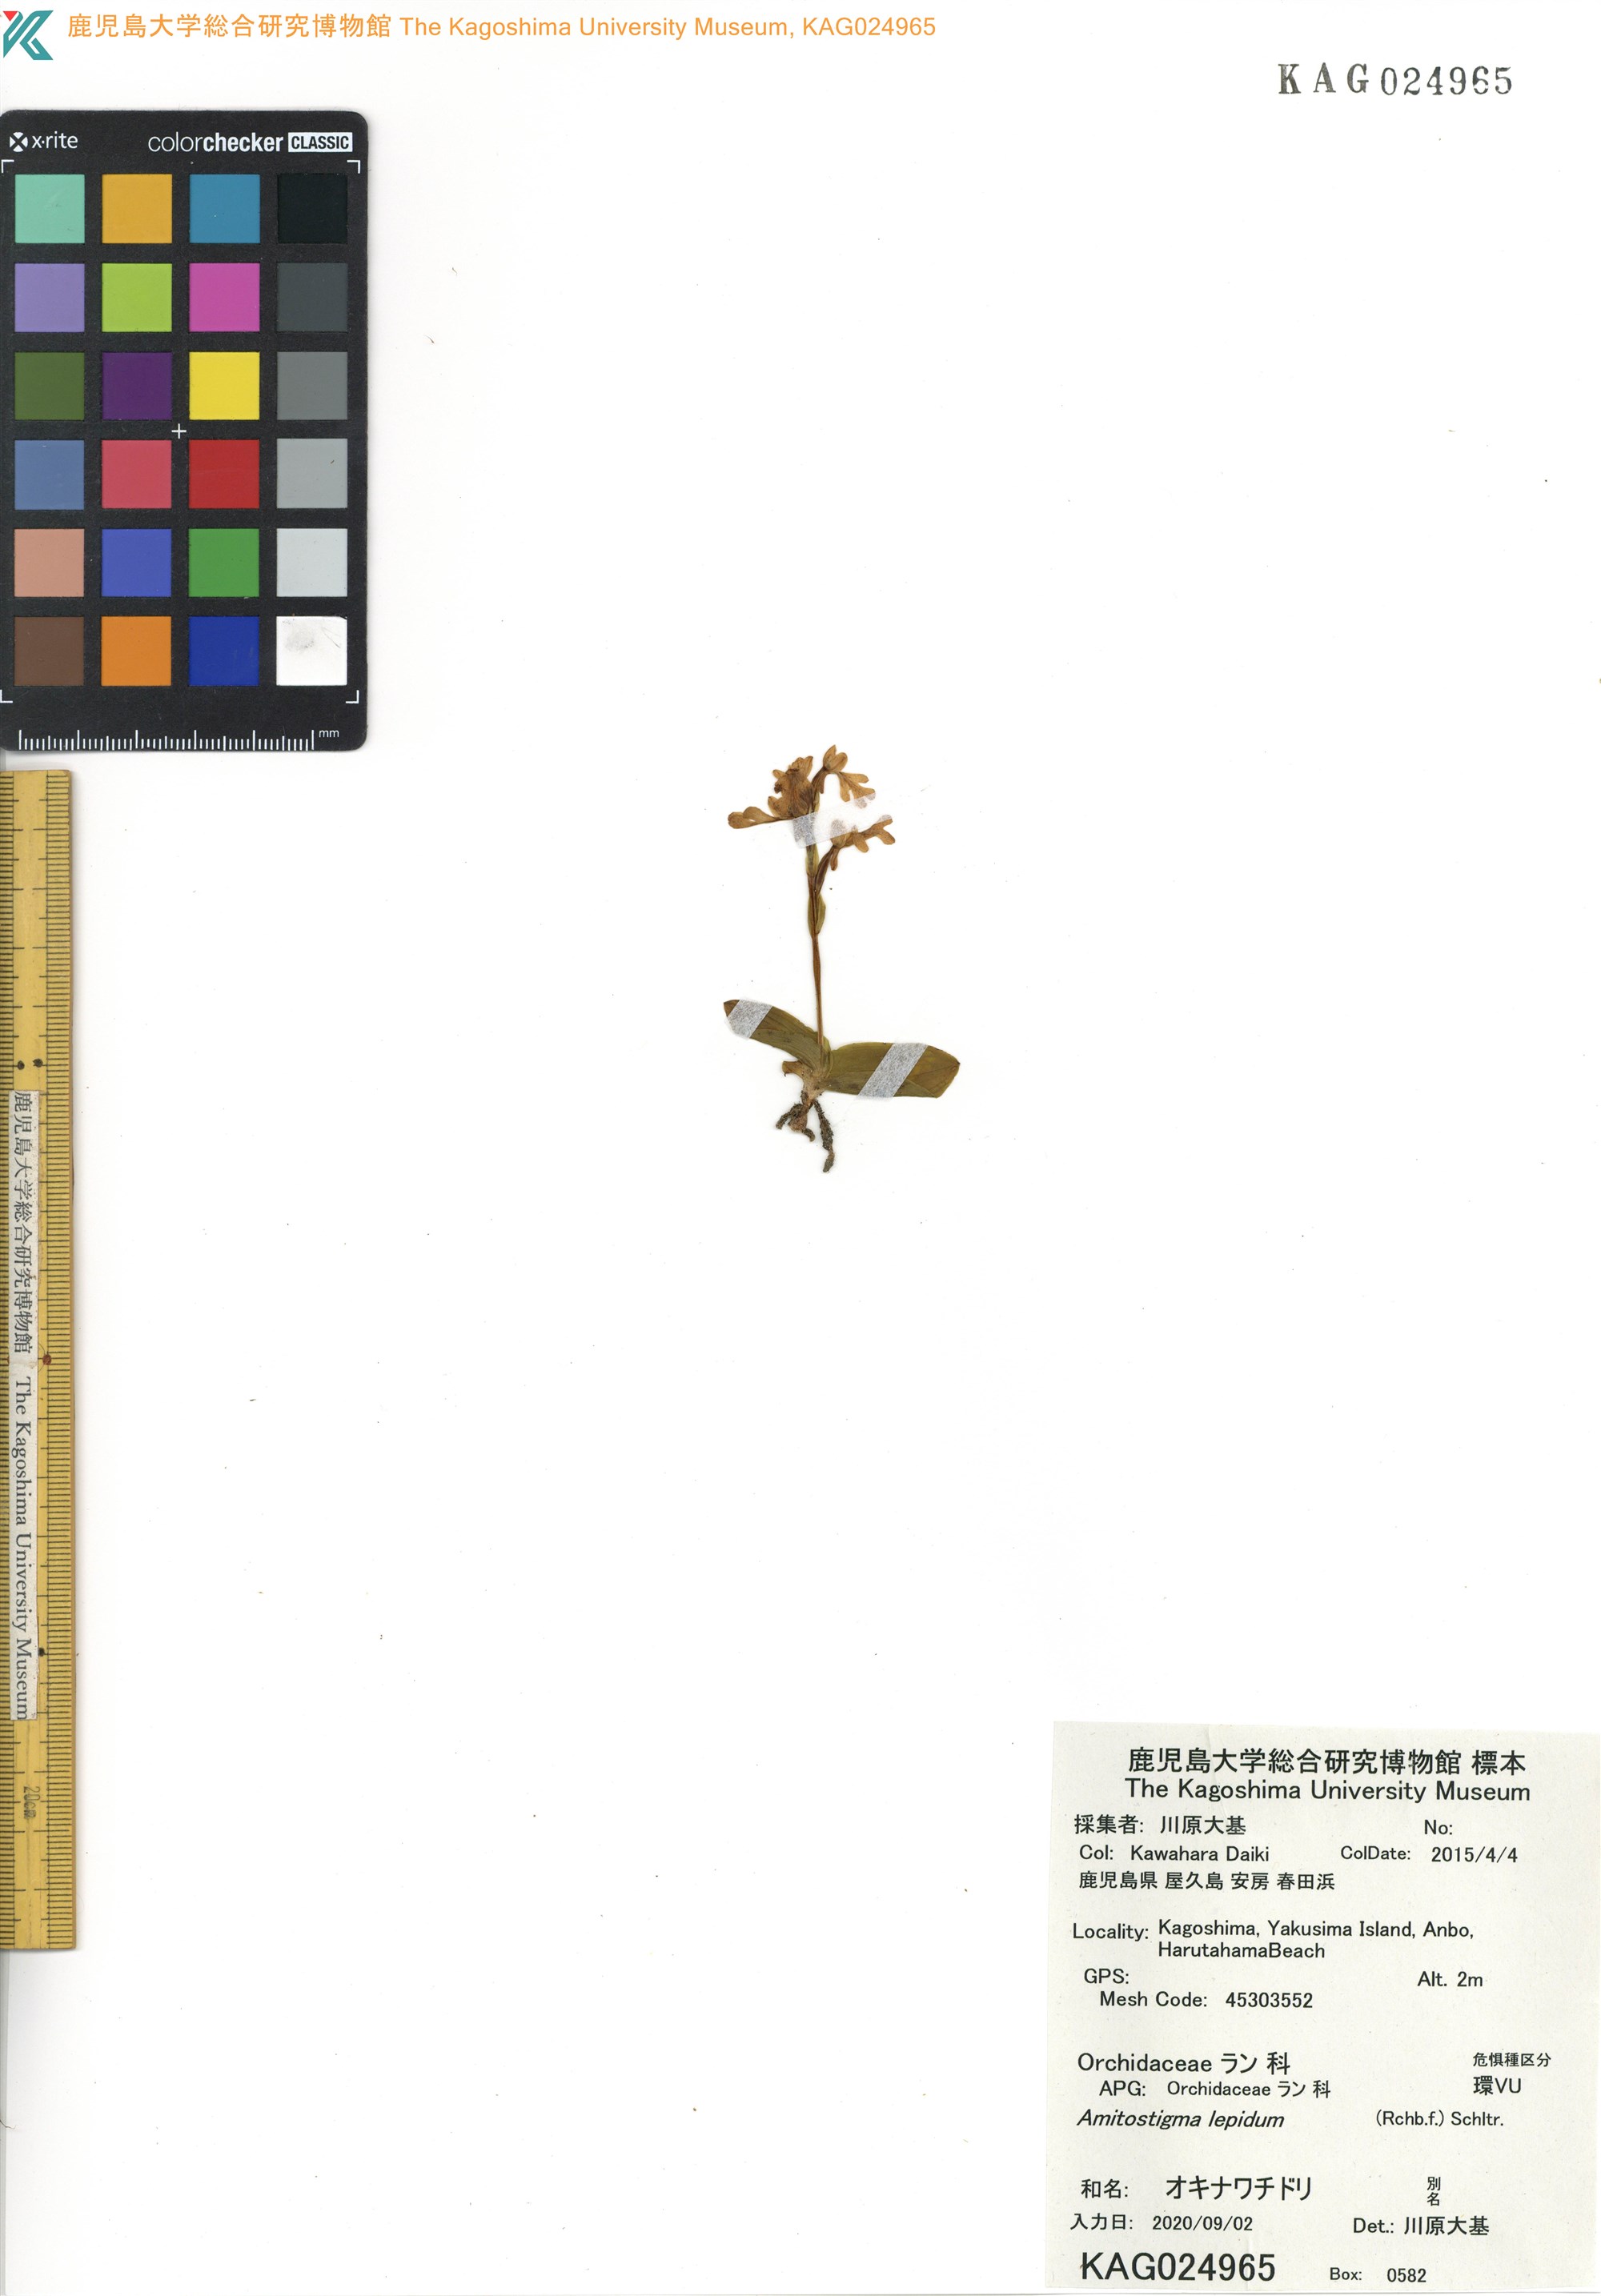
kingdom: Plantae
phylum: Tracheophyta
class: Liliopsida
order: Asparagales
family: Orchidaceae
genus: Hemipilia
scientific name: Hemipilia lepida
